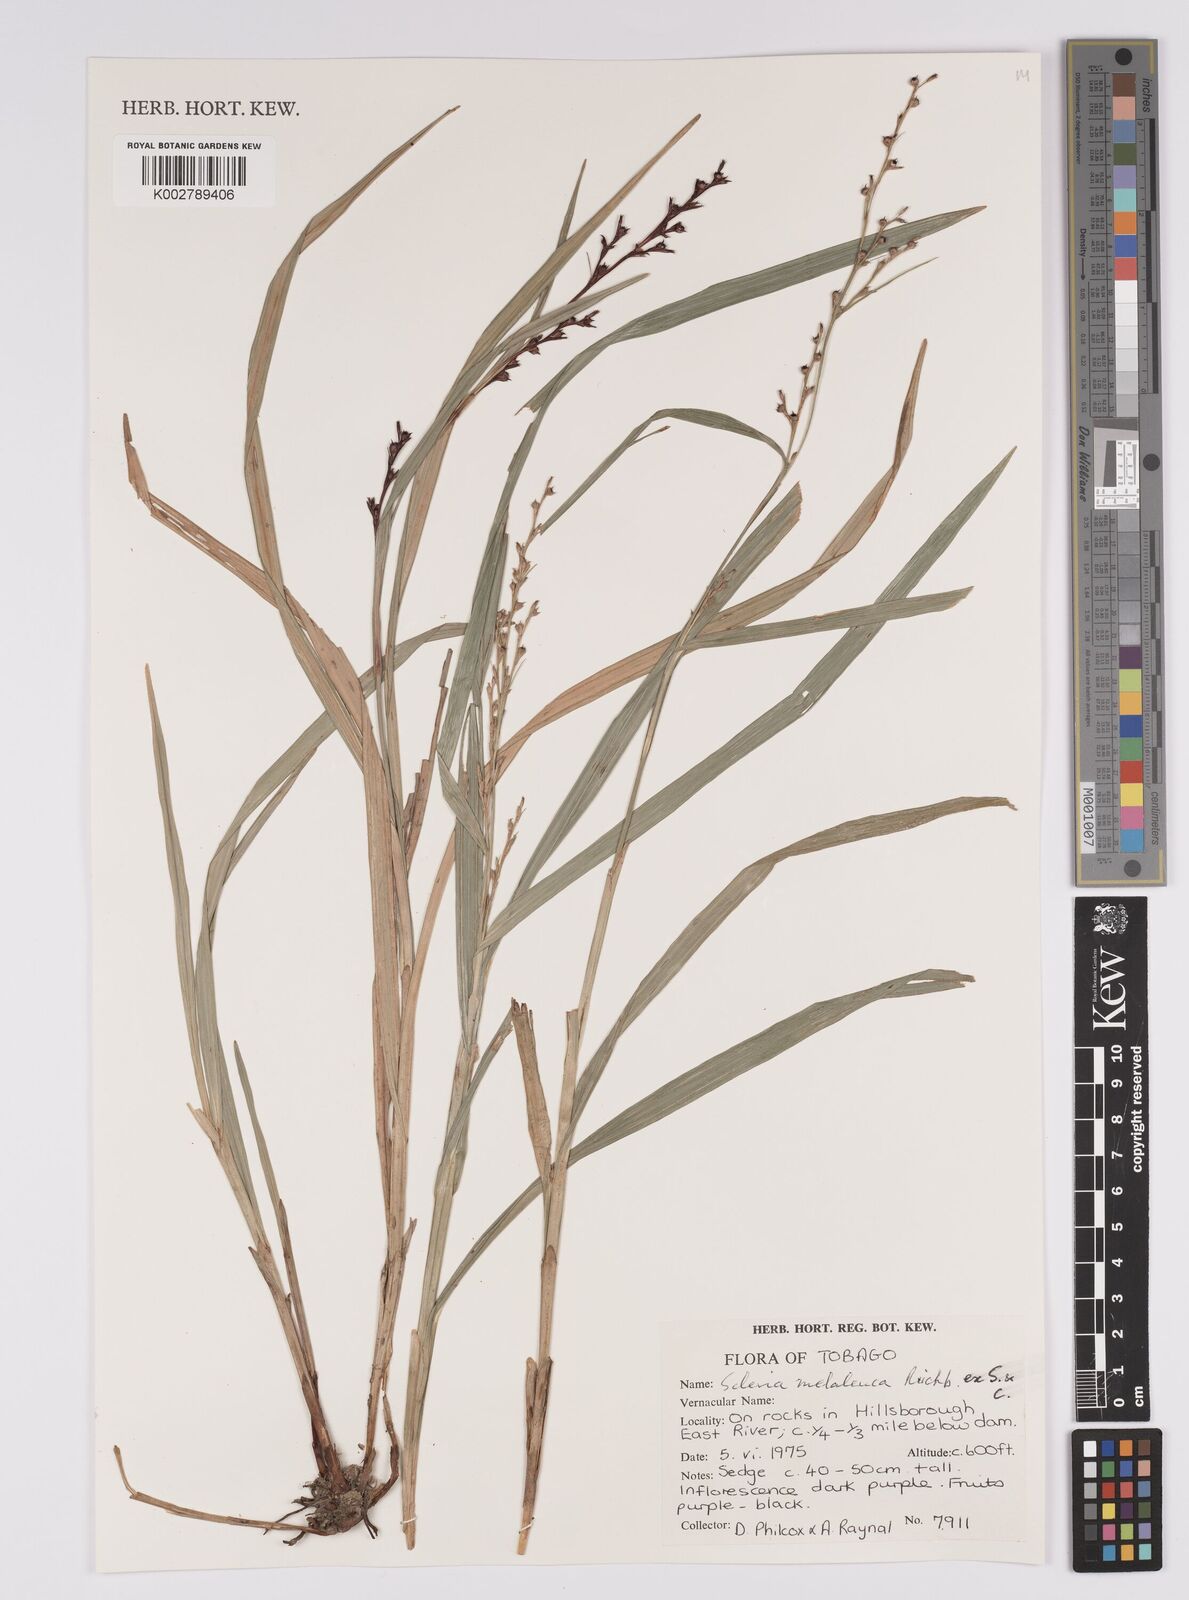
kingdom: Plantae
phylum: Tracheophyta
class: Liliopsida
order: Poales
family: Cyperaceae
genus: Scleria
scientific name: Scleria gaertneri
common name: Cortadera blanca
